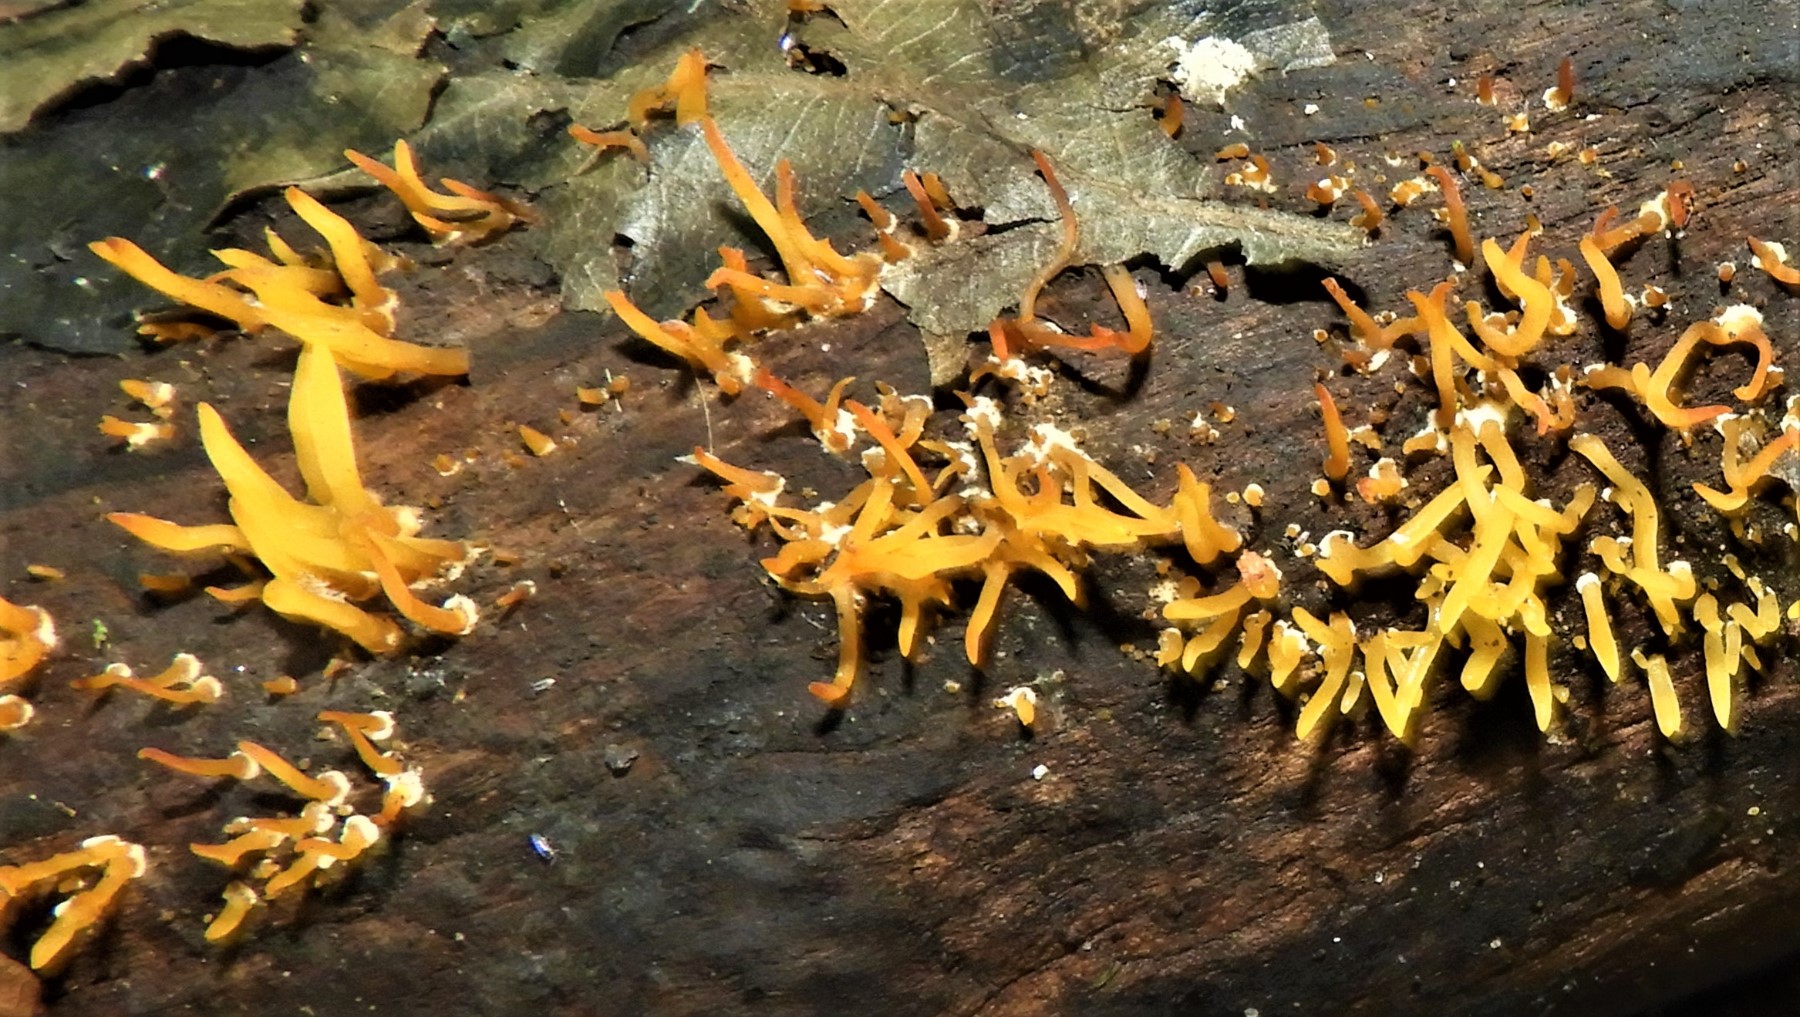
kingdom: Fungi
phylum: Basidiomycota
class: Dacrymycetes
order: Dacrymycetales
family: Dacrymycetaceae
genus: Calocera
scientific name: Calocera cornea
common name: liden guldgaffel
